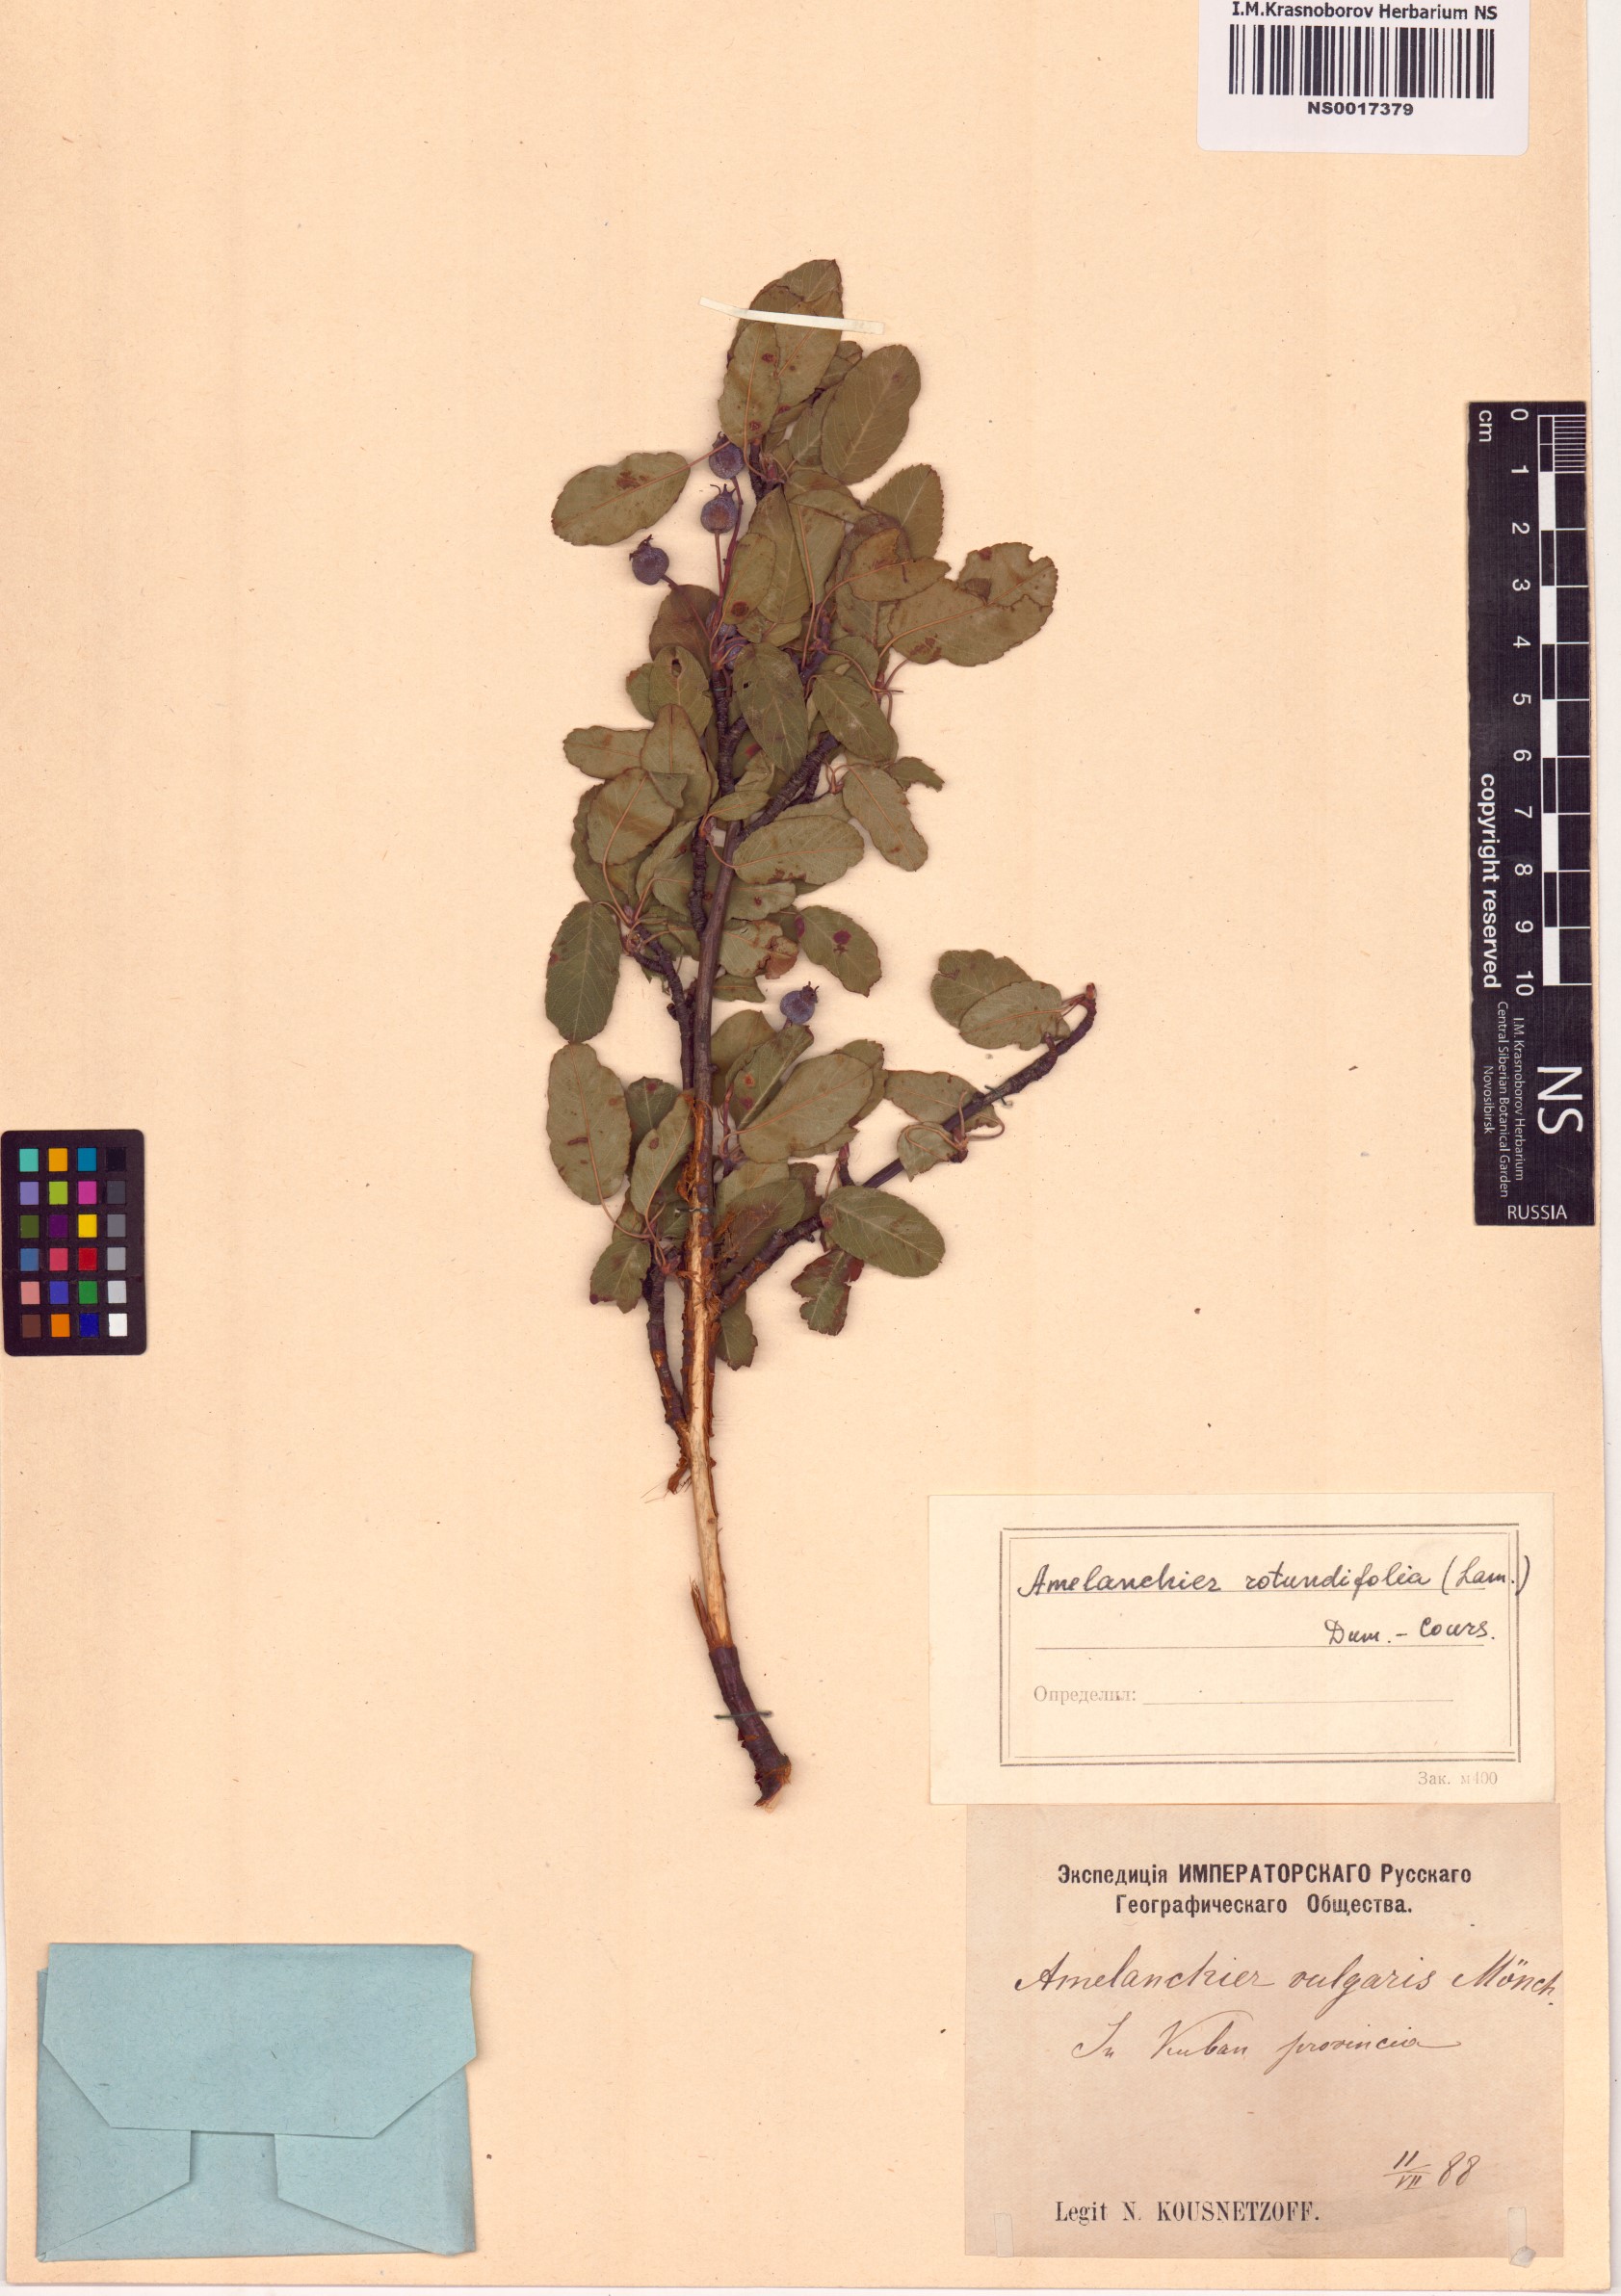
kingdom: Plantae
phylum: Tracheophyta
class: Magnoliopsida
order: Rosales
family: Rosaceae
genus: Amelanchier
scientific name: Amelanchier ovalis
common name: Serviceberry
